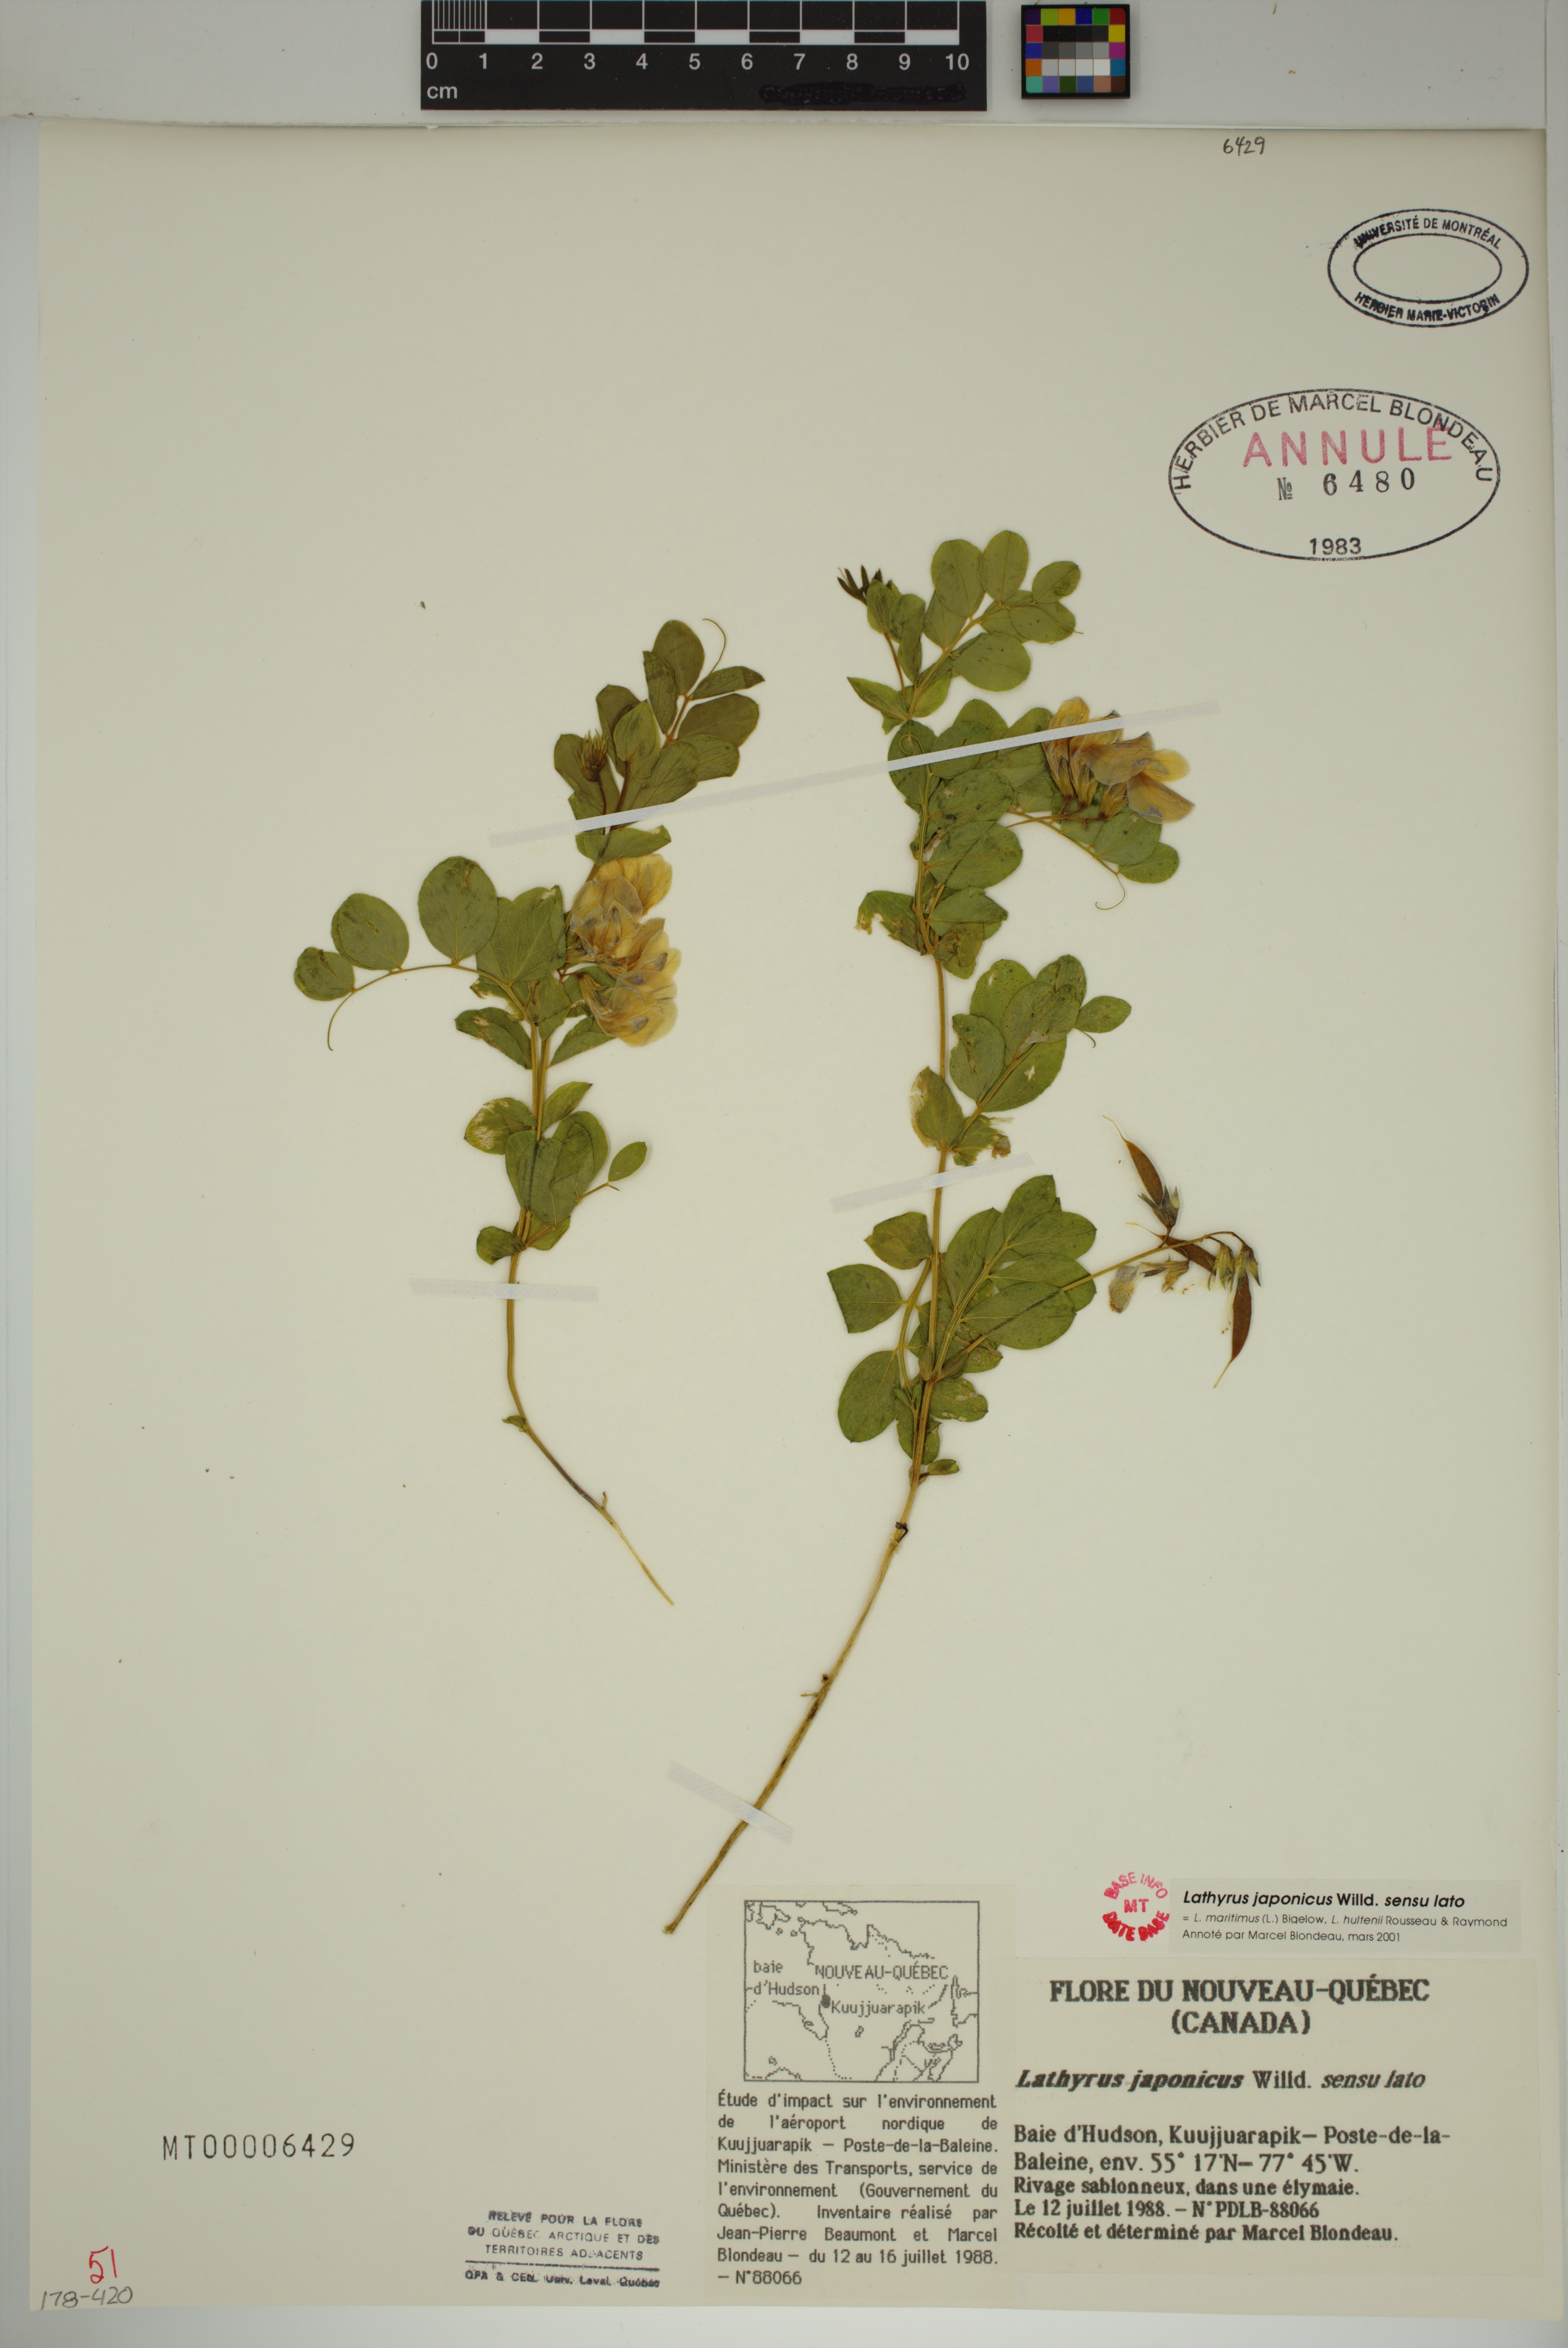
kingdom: Plantae
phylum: Tracheophyta
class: Magnoliopsida
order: Fabales
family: Fabaceae
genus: Lathyrus
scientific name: Lathyrus japonicus
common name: Sea pea
